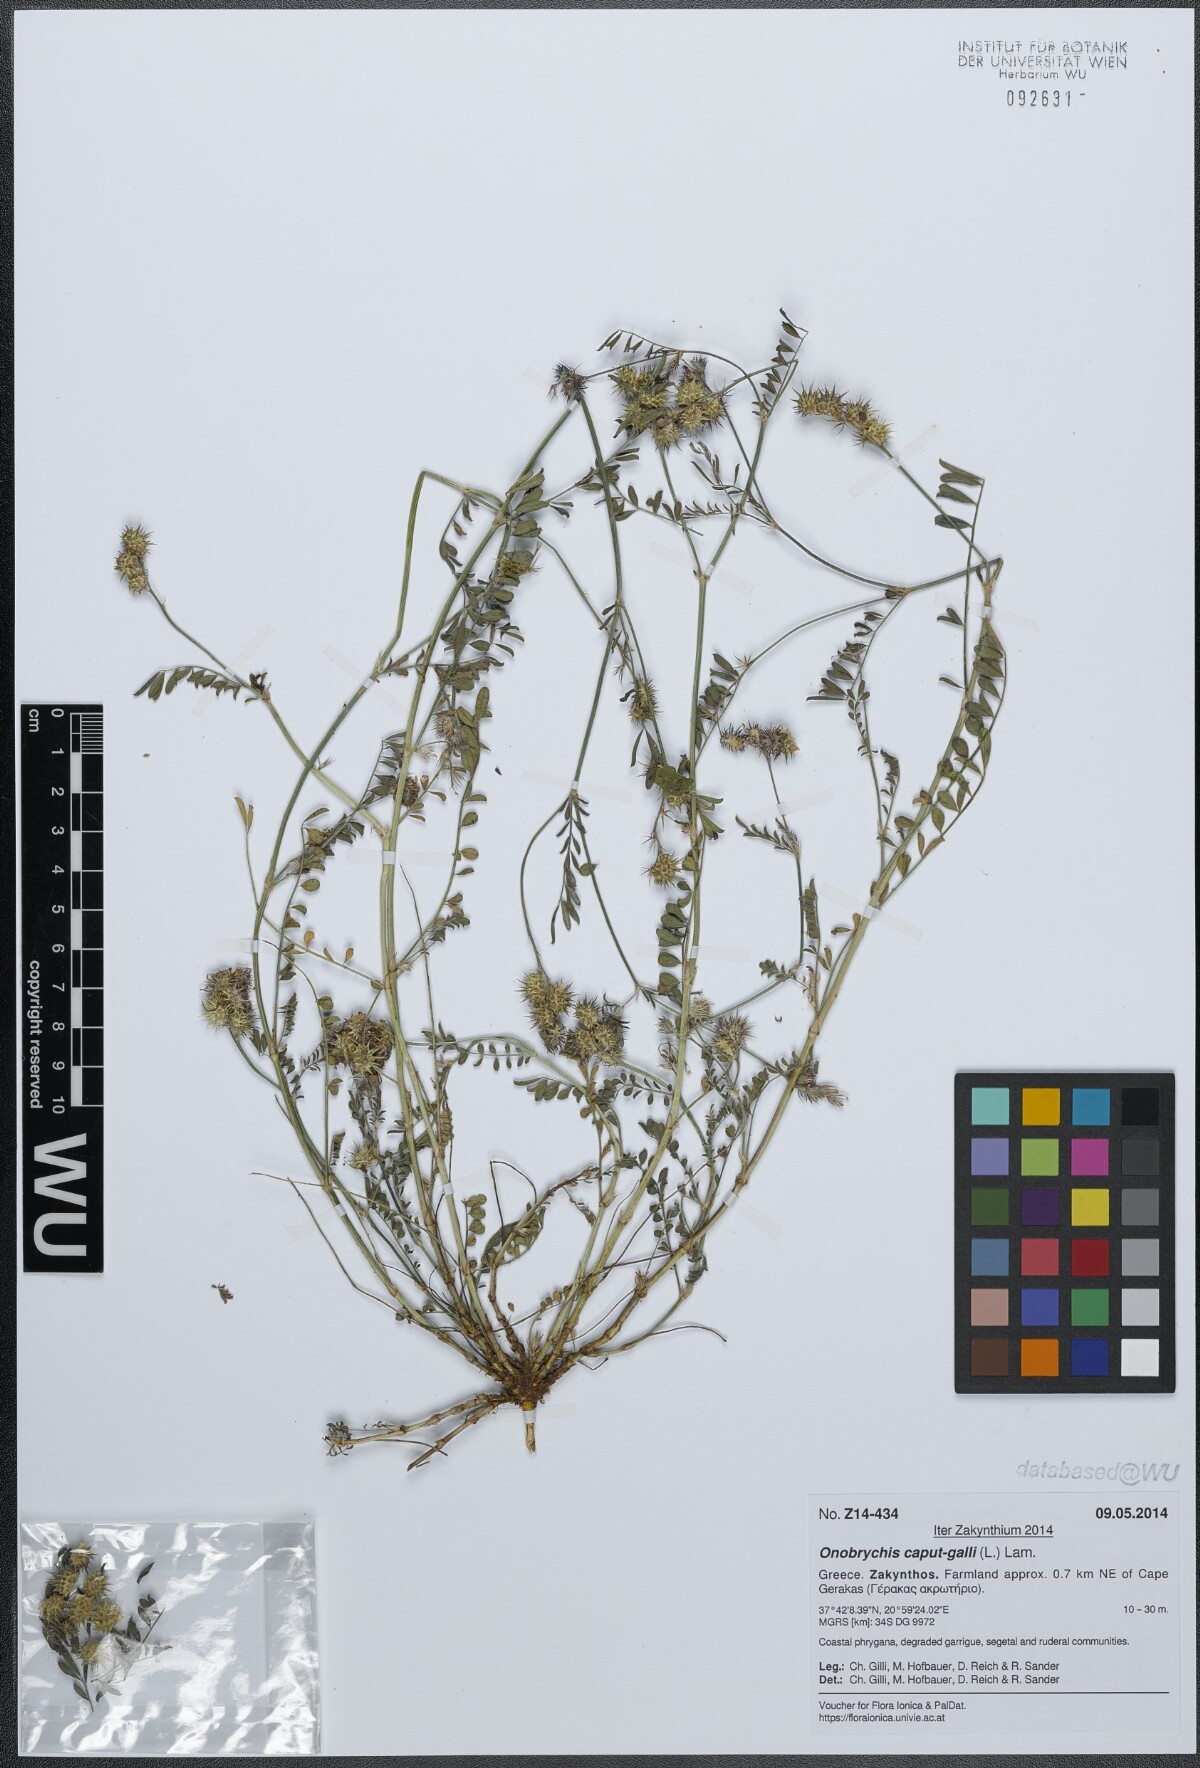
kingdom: Plantae
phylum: Tracheophyta
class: Magnoliopsida
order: Fabales
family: Fabaceae
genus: Onobrychis
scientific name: Onobrychis caput-galli
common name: Cockscomb sainfoin
